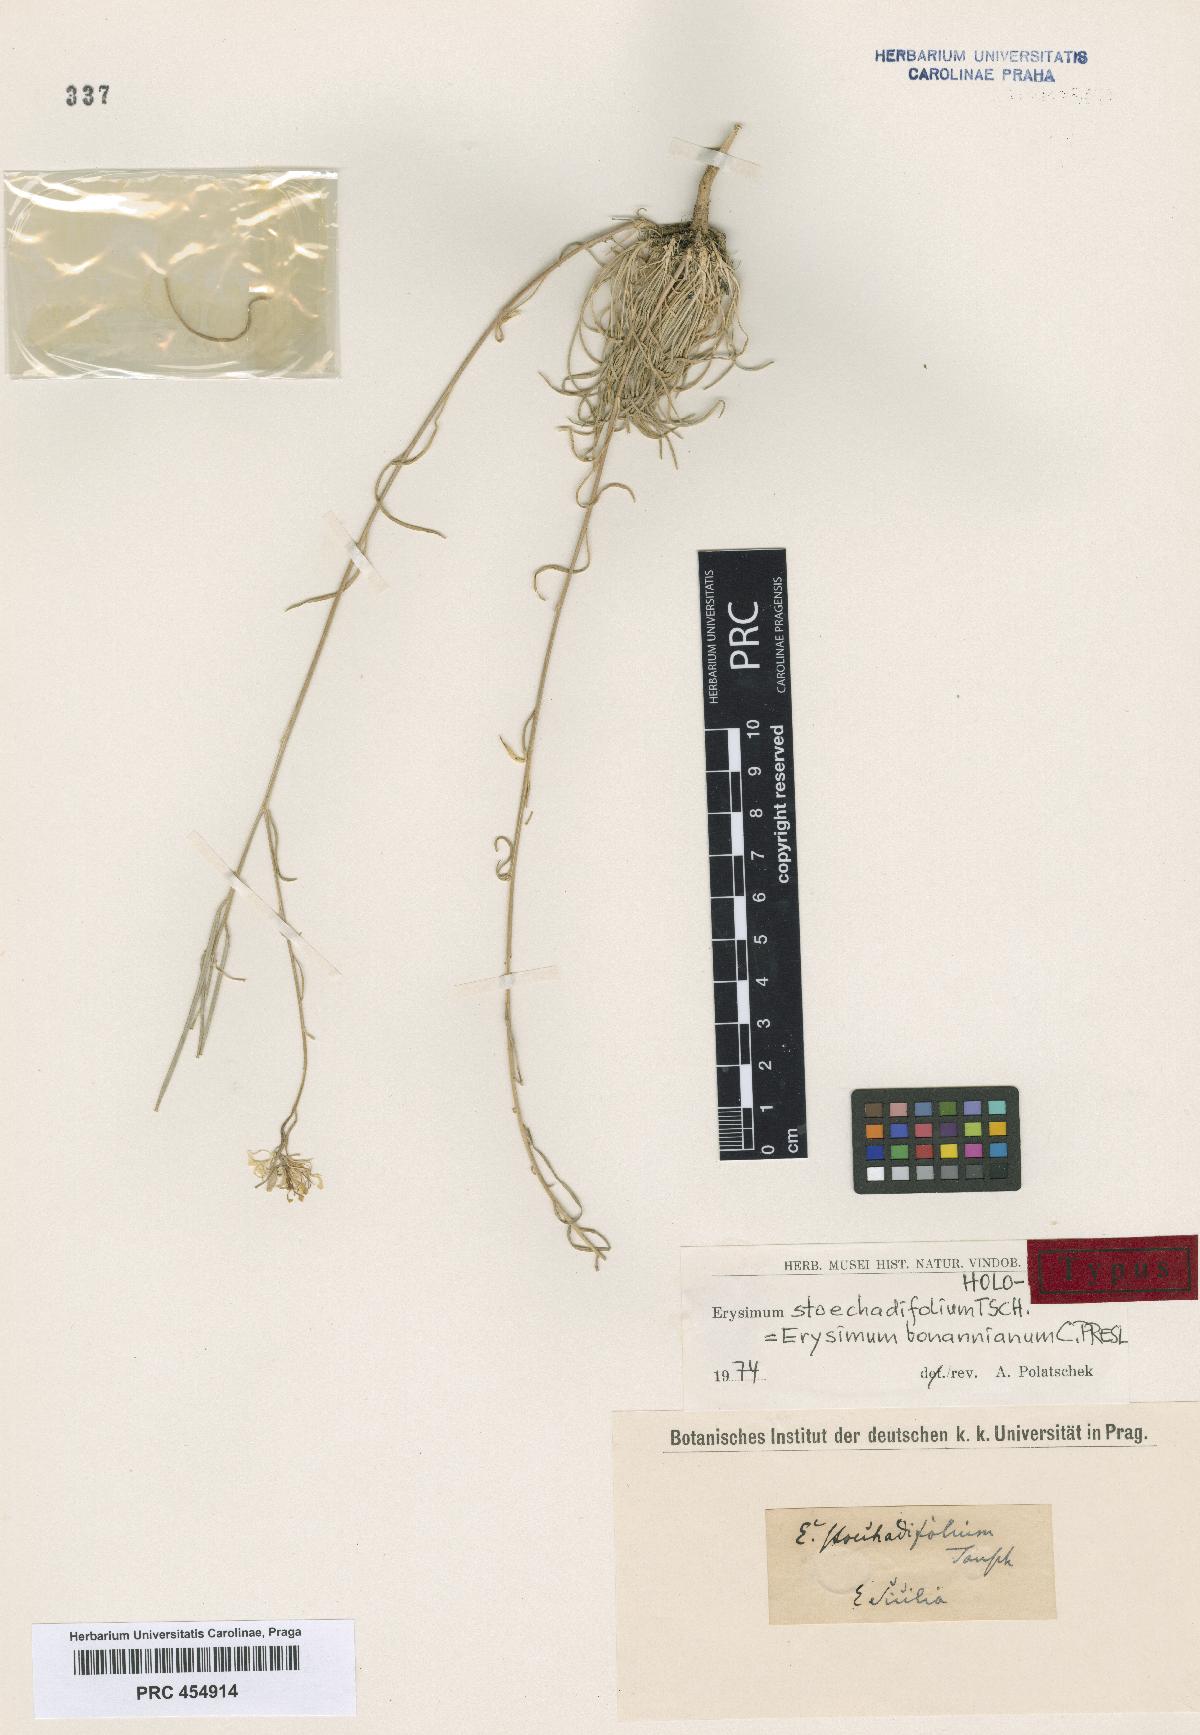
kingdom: Plantae
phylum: Tracheophyta
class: Magnoliopsida
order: Brassicales
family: Brassicaceae
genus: Erysimum
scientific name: Erysimum bonannianum
